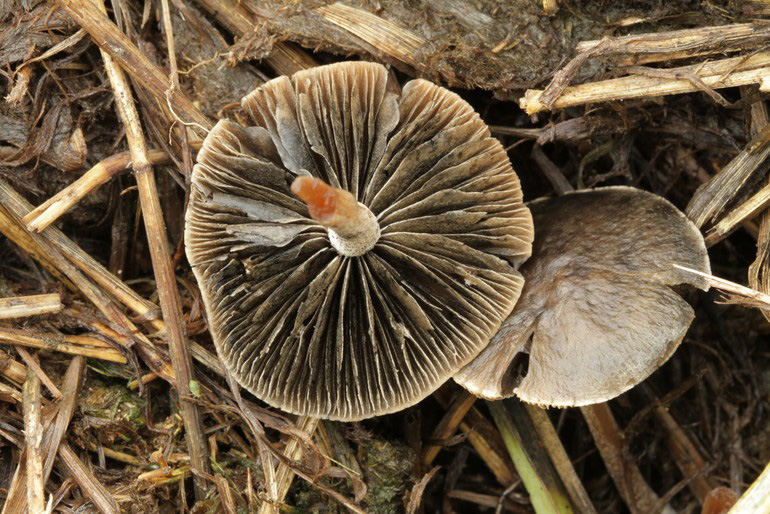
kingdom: Fungi
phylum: Basidiomycota
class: Agaricomycetes
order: Agaricales
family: Bolbitiaceae
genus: Panaeolus
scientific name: Panaeolus olivaceus
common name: lysstokket glanshat
